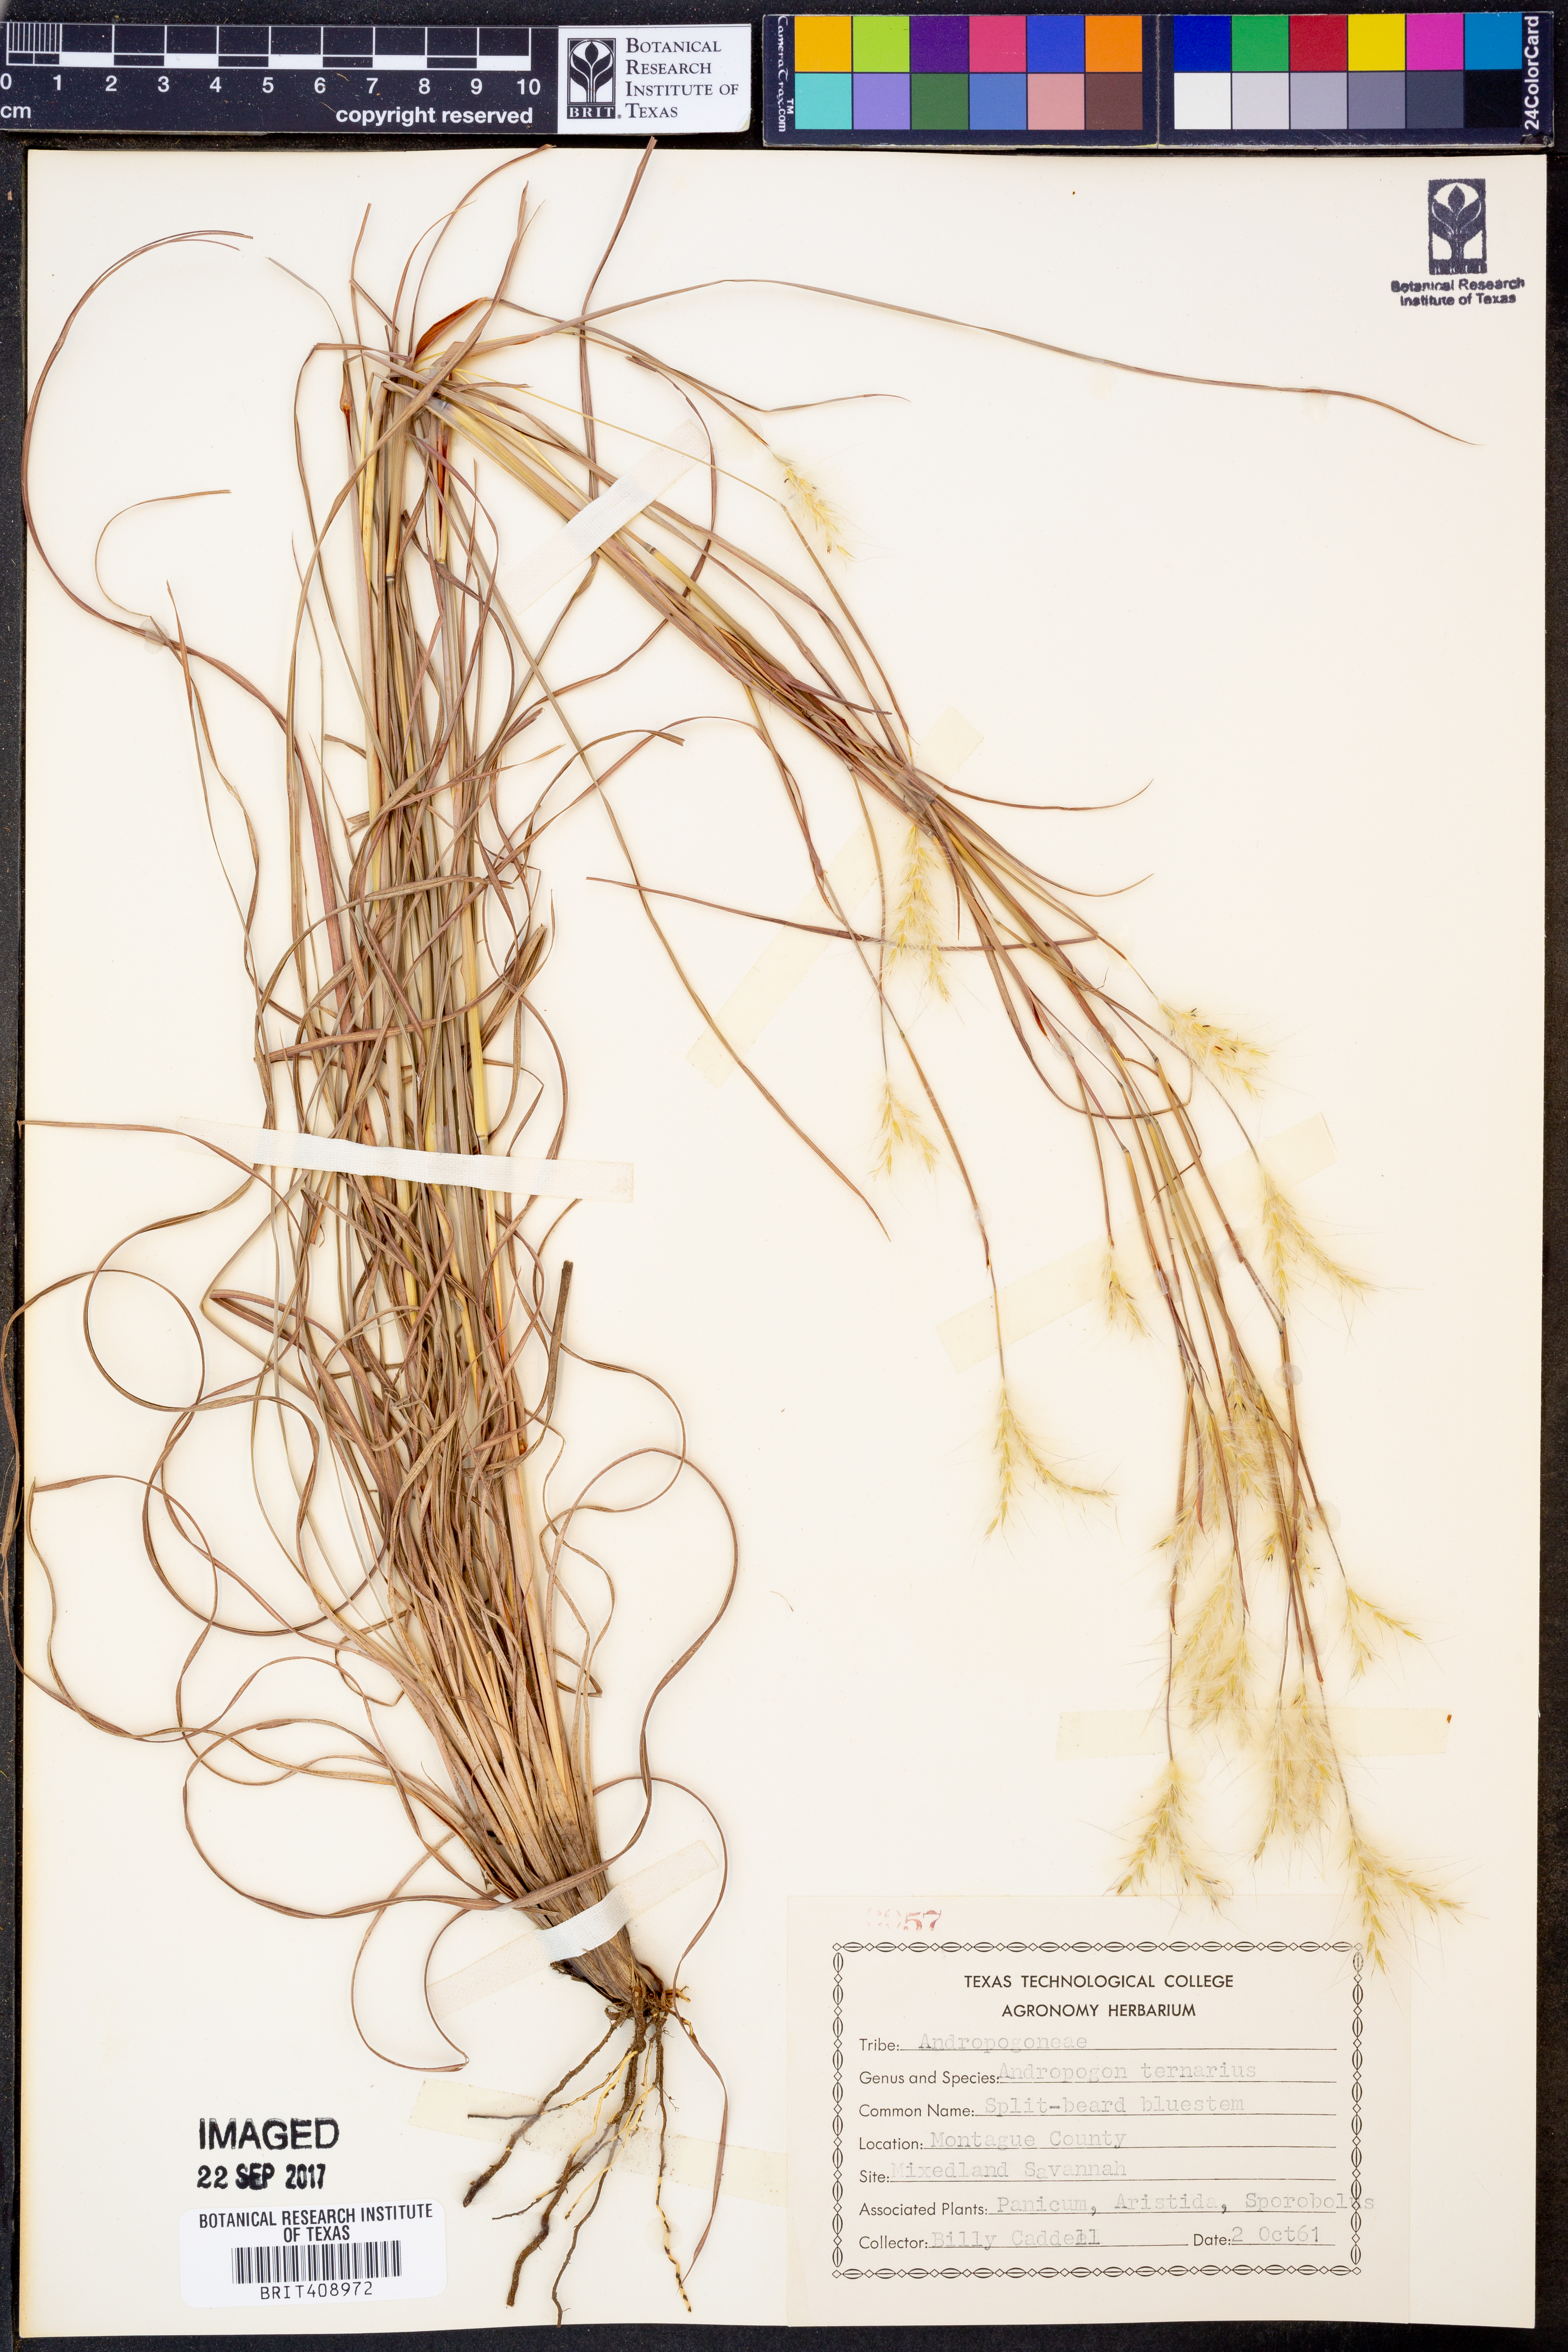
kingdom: Plantae
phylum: Tracheophyta
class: Liliopsida
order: Poales
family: Poaceae
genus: Andropogon
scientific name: Andropogon ternarius
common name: Split bluestem
